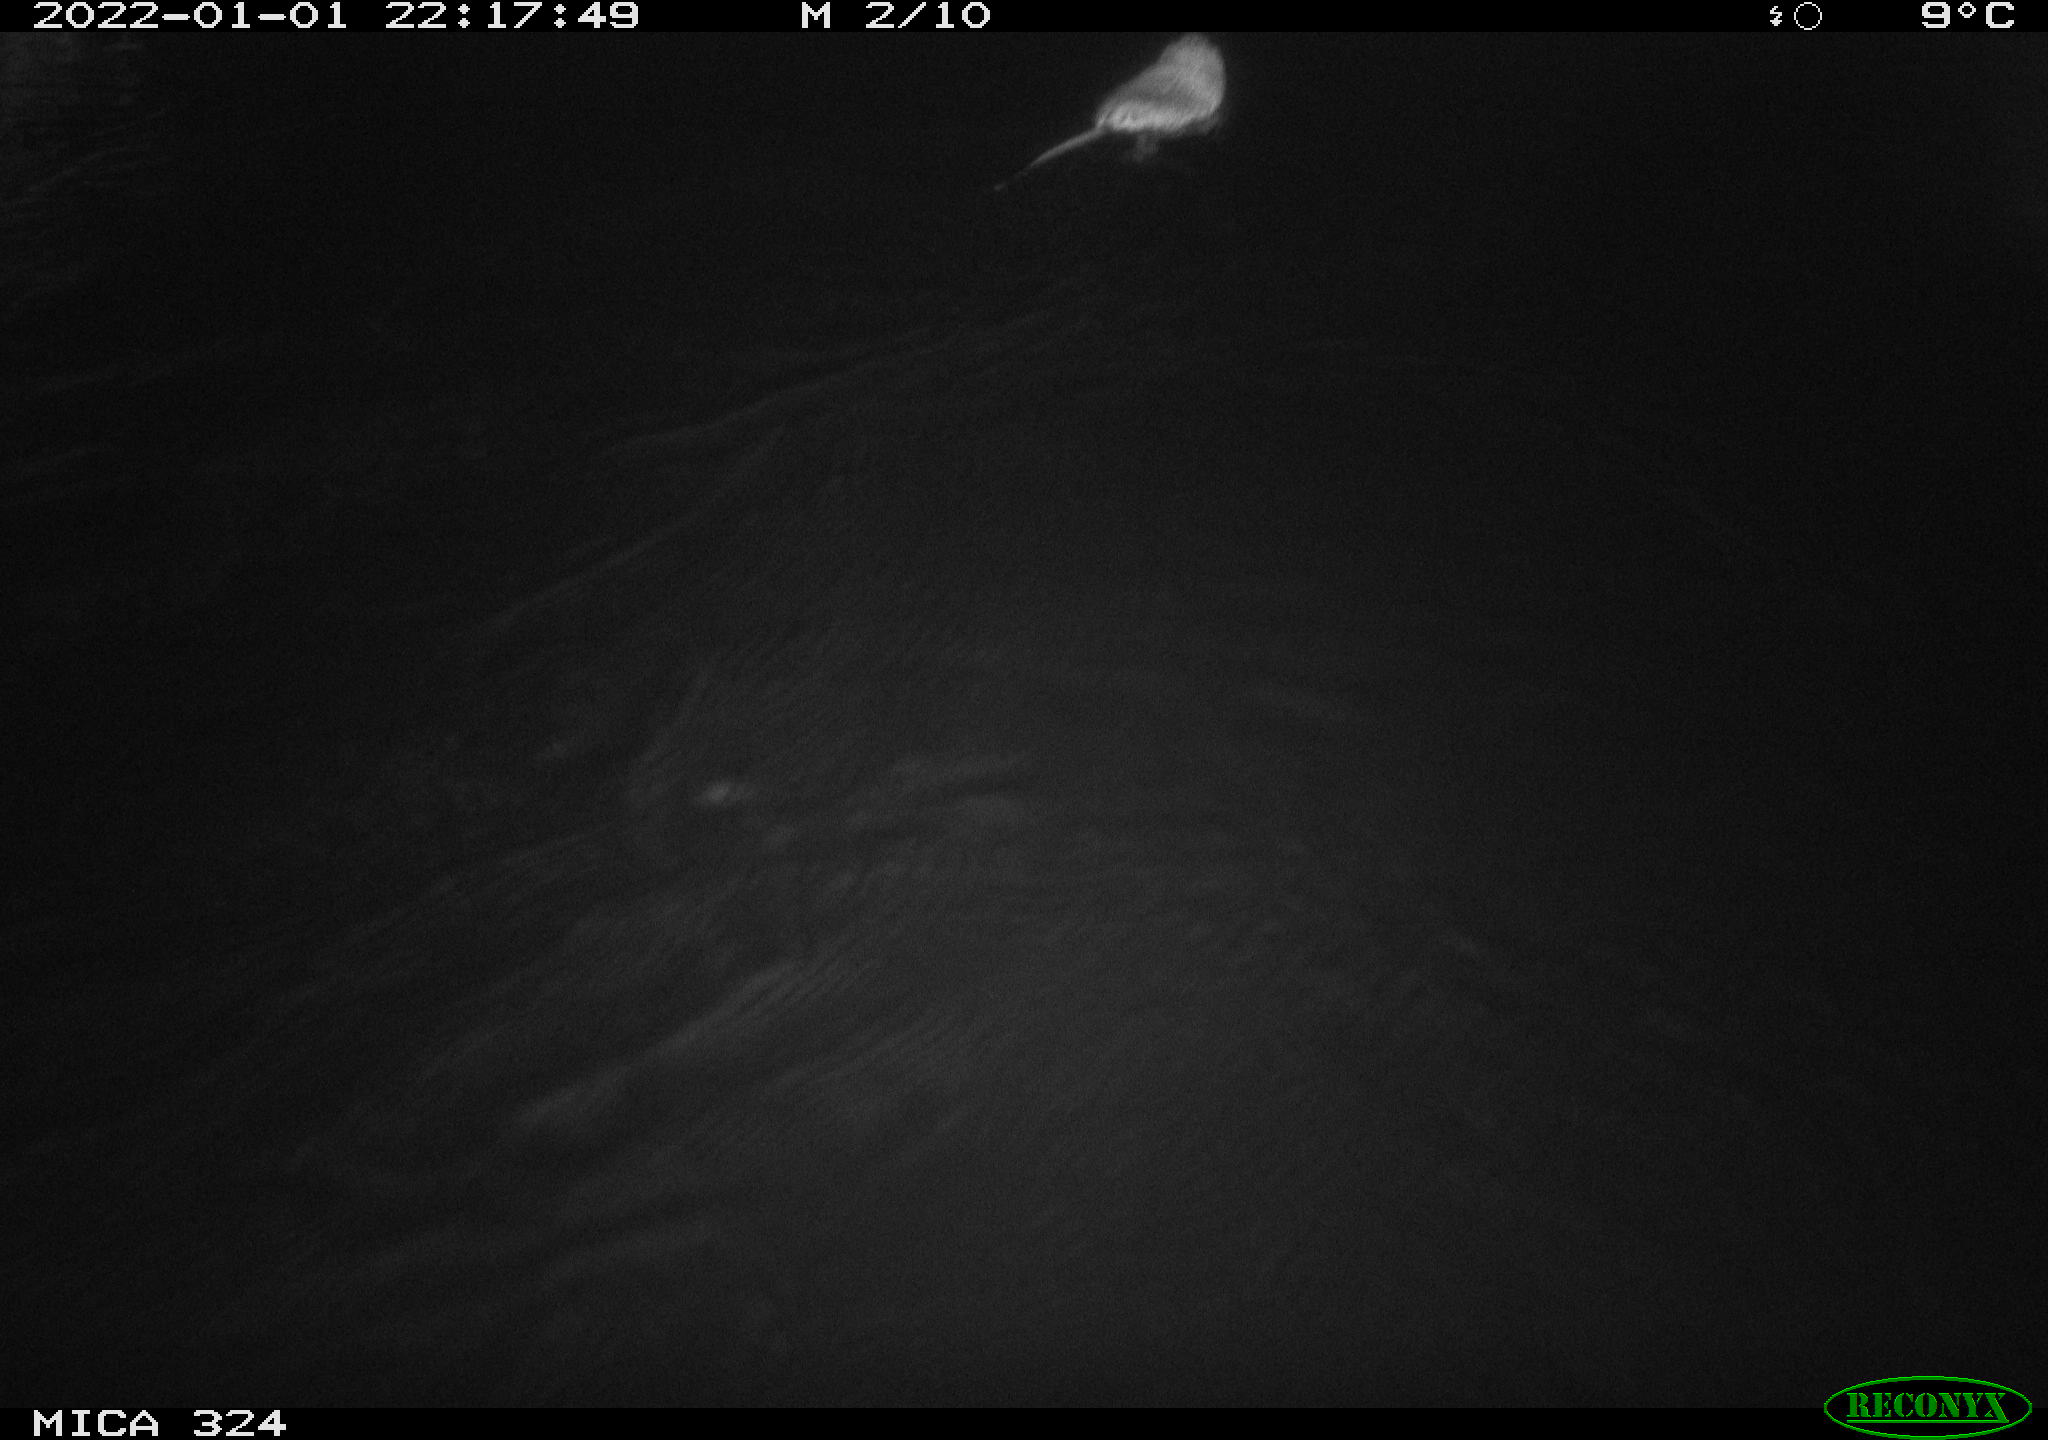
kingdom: Animalia
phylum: Chordata
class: Mammalia
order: Rodentia
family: Cricetidae
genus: Ondatra
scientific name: Ondatra zibethicus
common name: Muskrat
